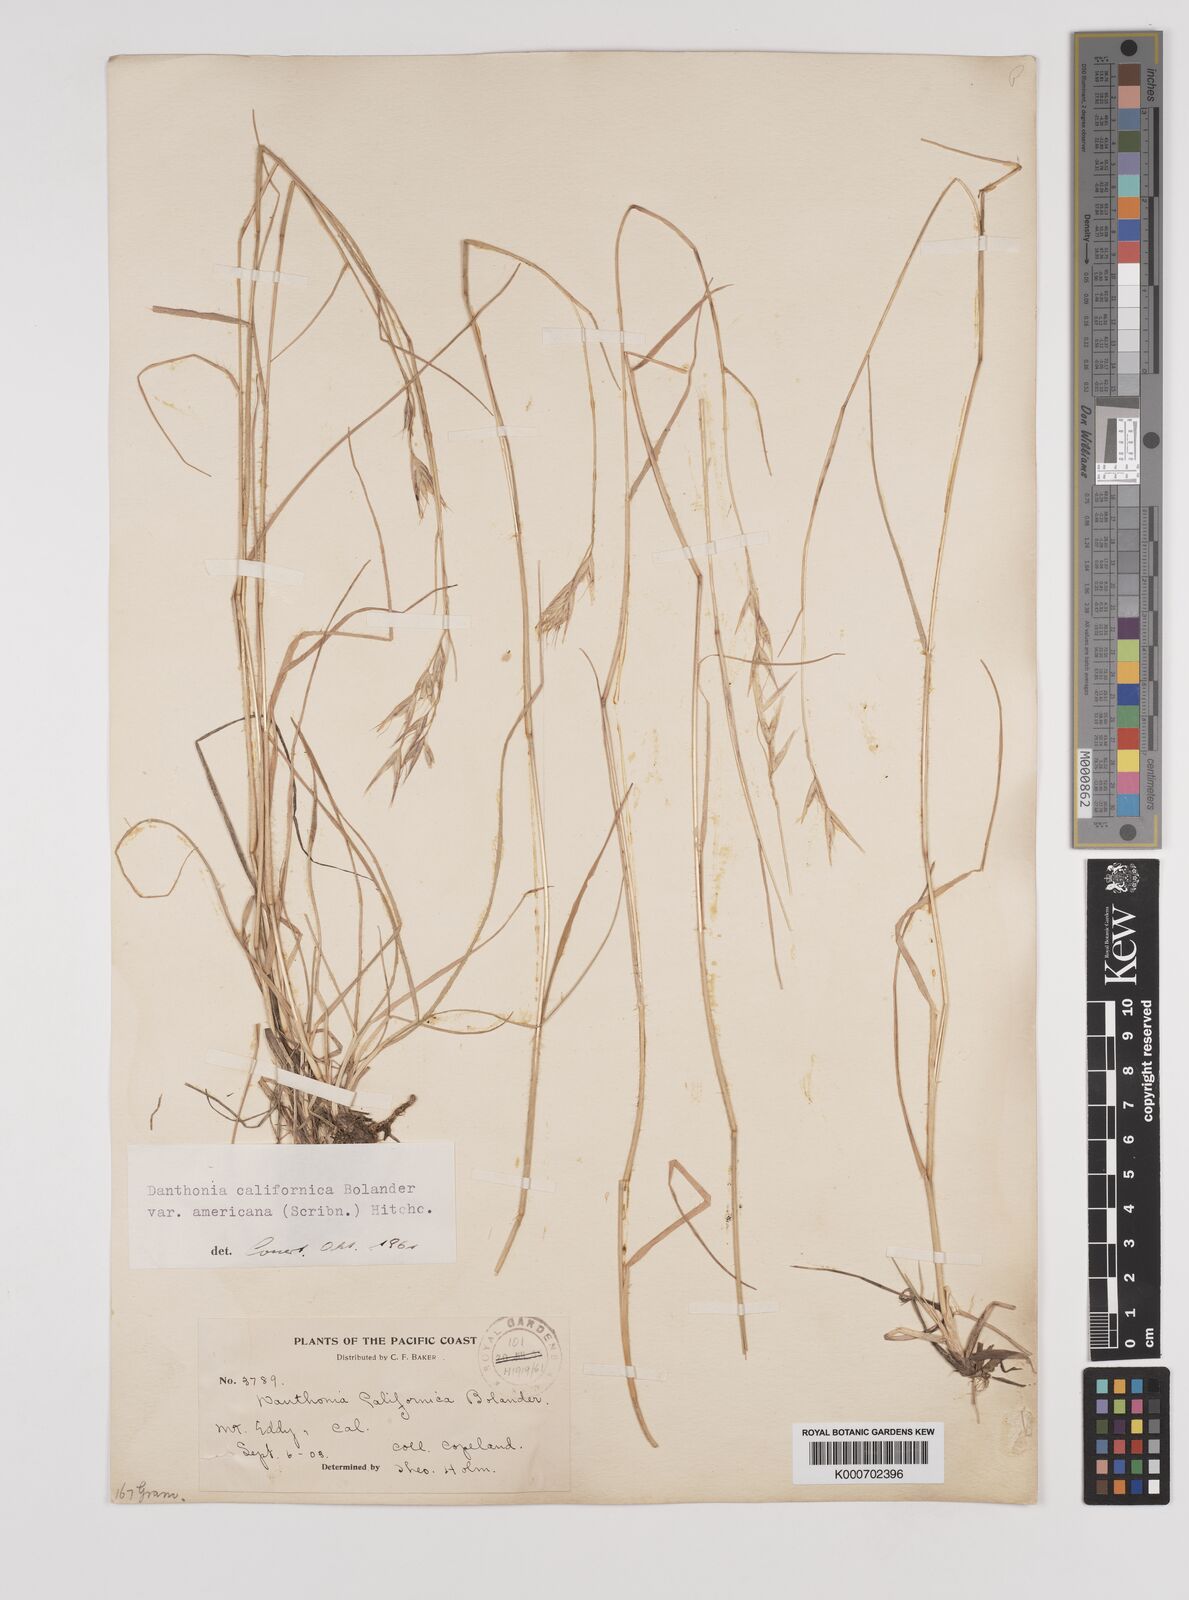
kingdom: Plantae
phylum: Tracheophyta
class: Liliopsida
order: Poales
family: Poaceae
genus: Danthonia
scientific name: Danthonia californica
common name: California oat grass
